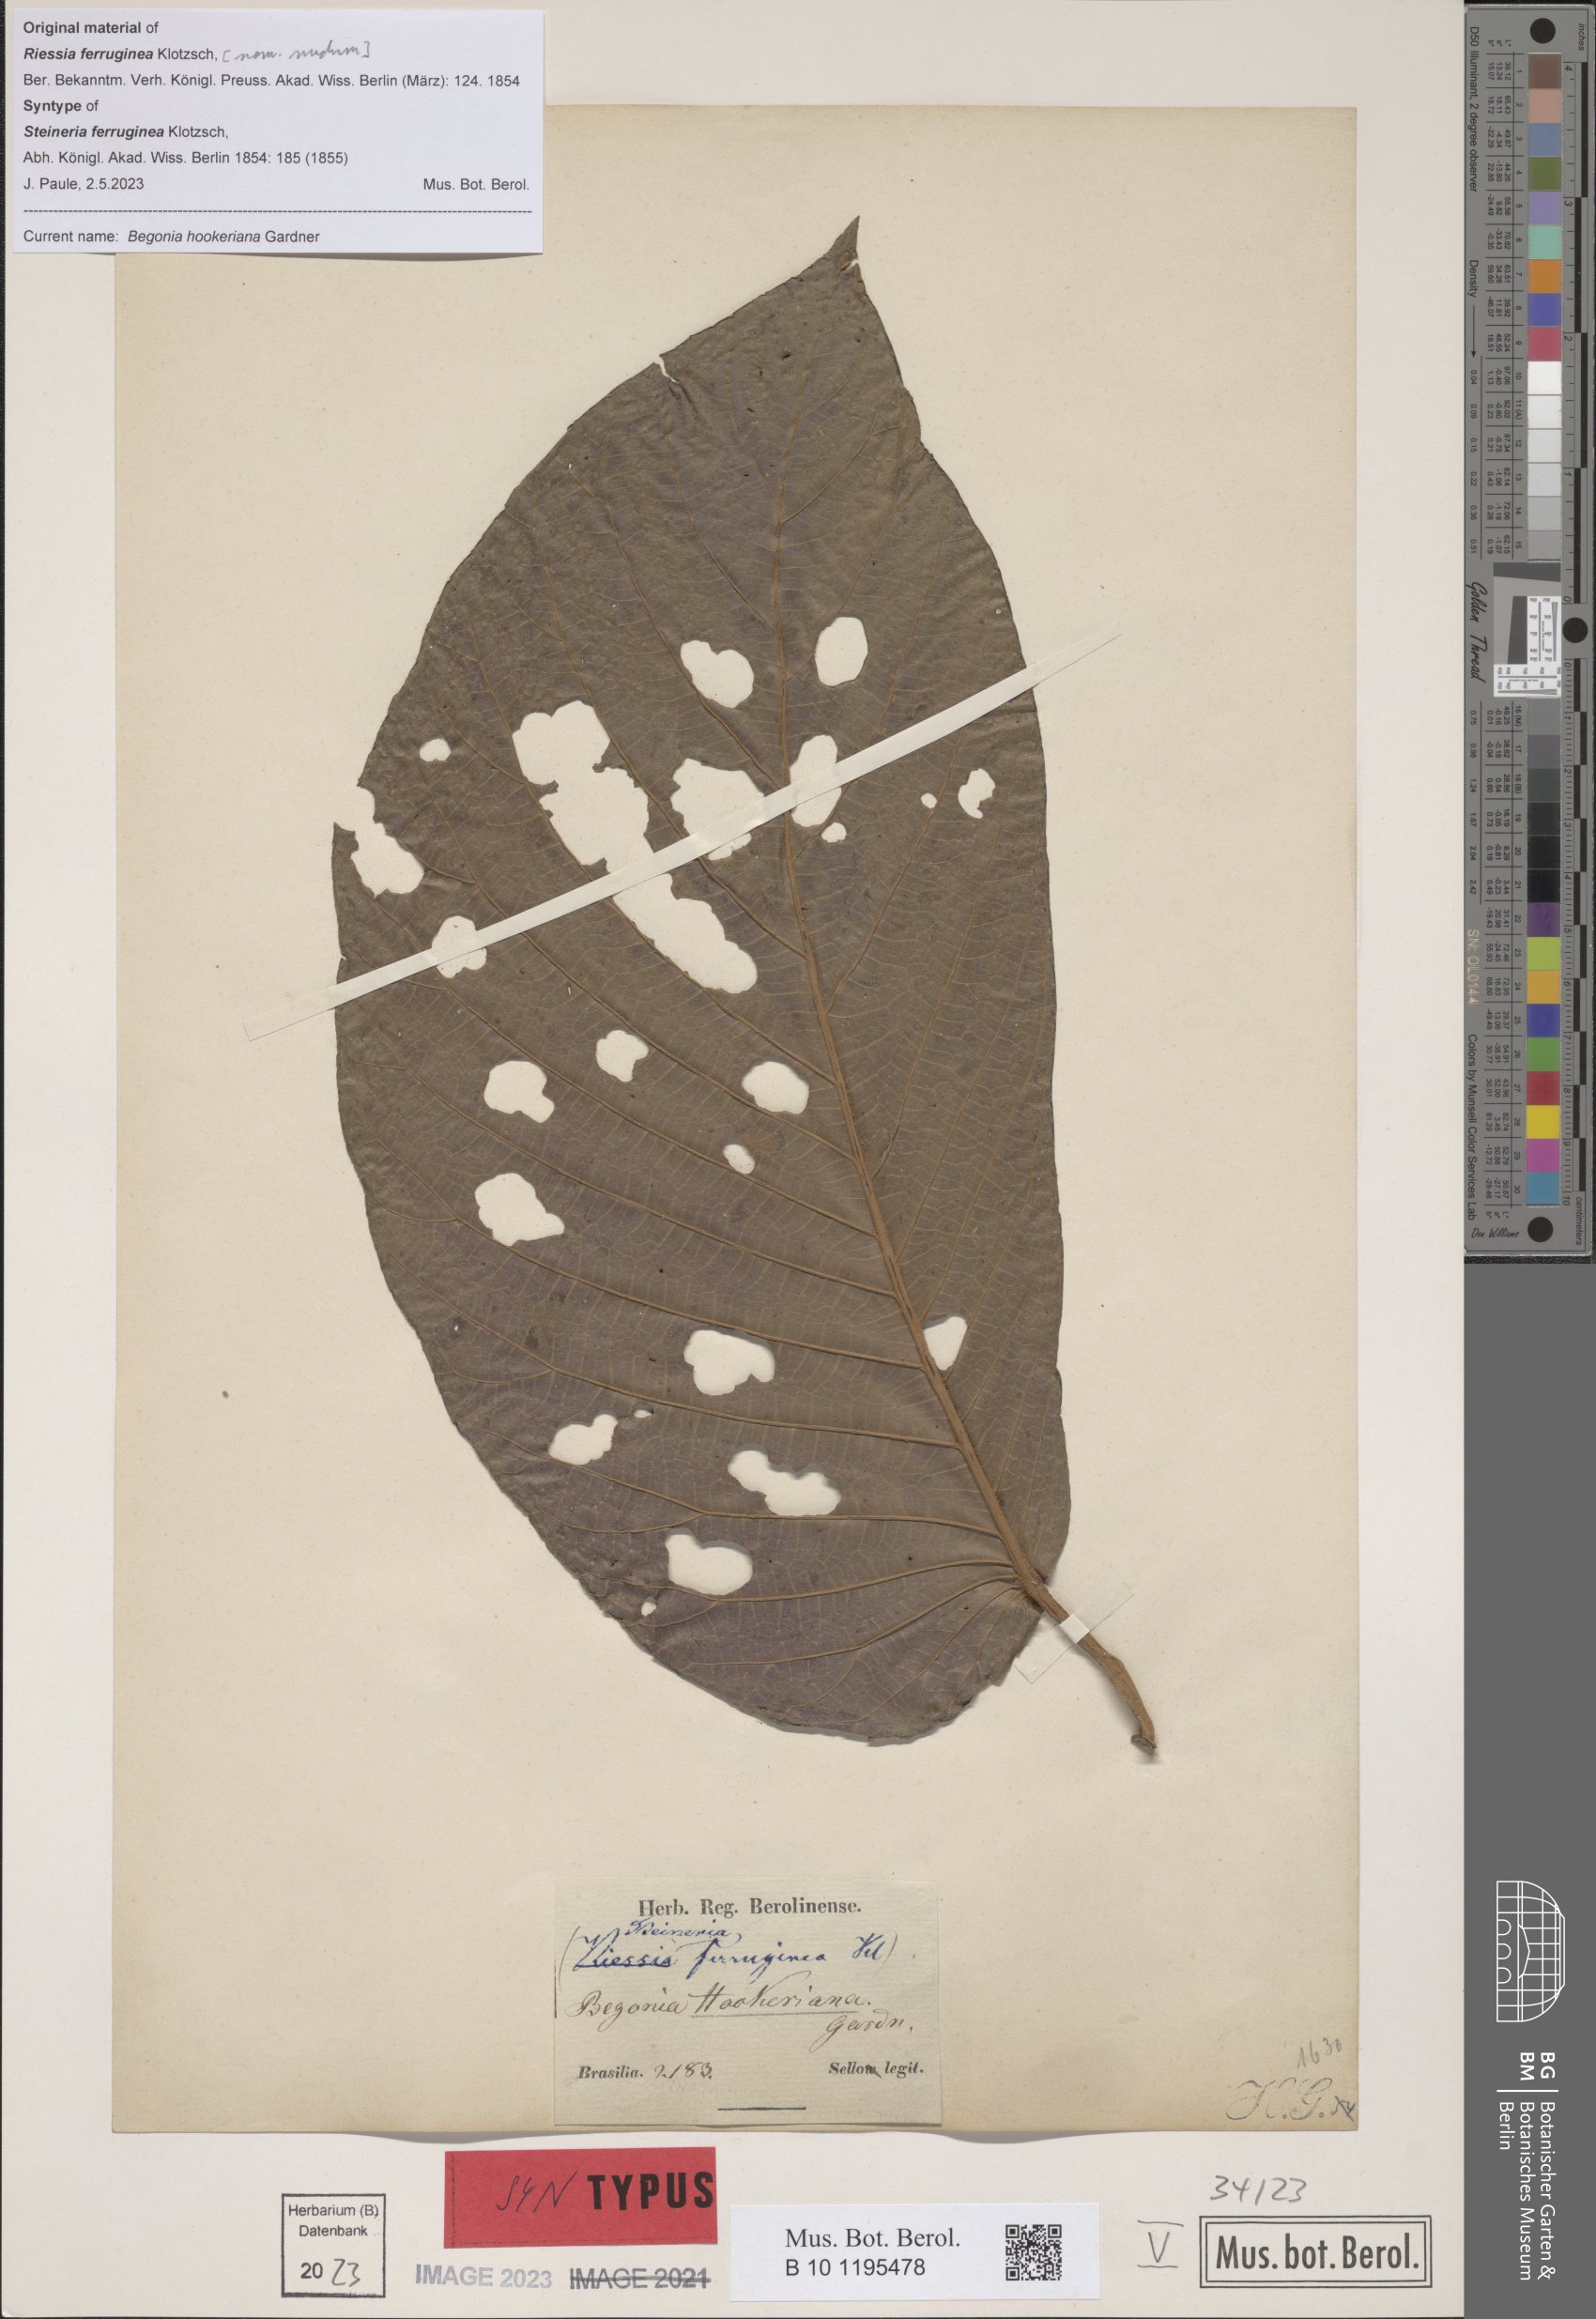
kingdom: Plantae
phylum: Tracheophyta
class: Magnoliopsida
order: Cucurbitales
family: Begoniaceae
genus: Begonia
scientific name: Begonia hookeriana
